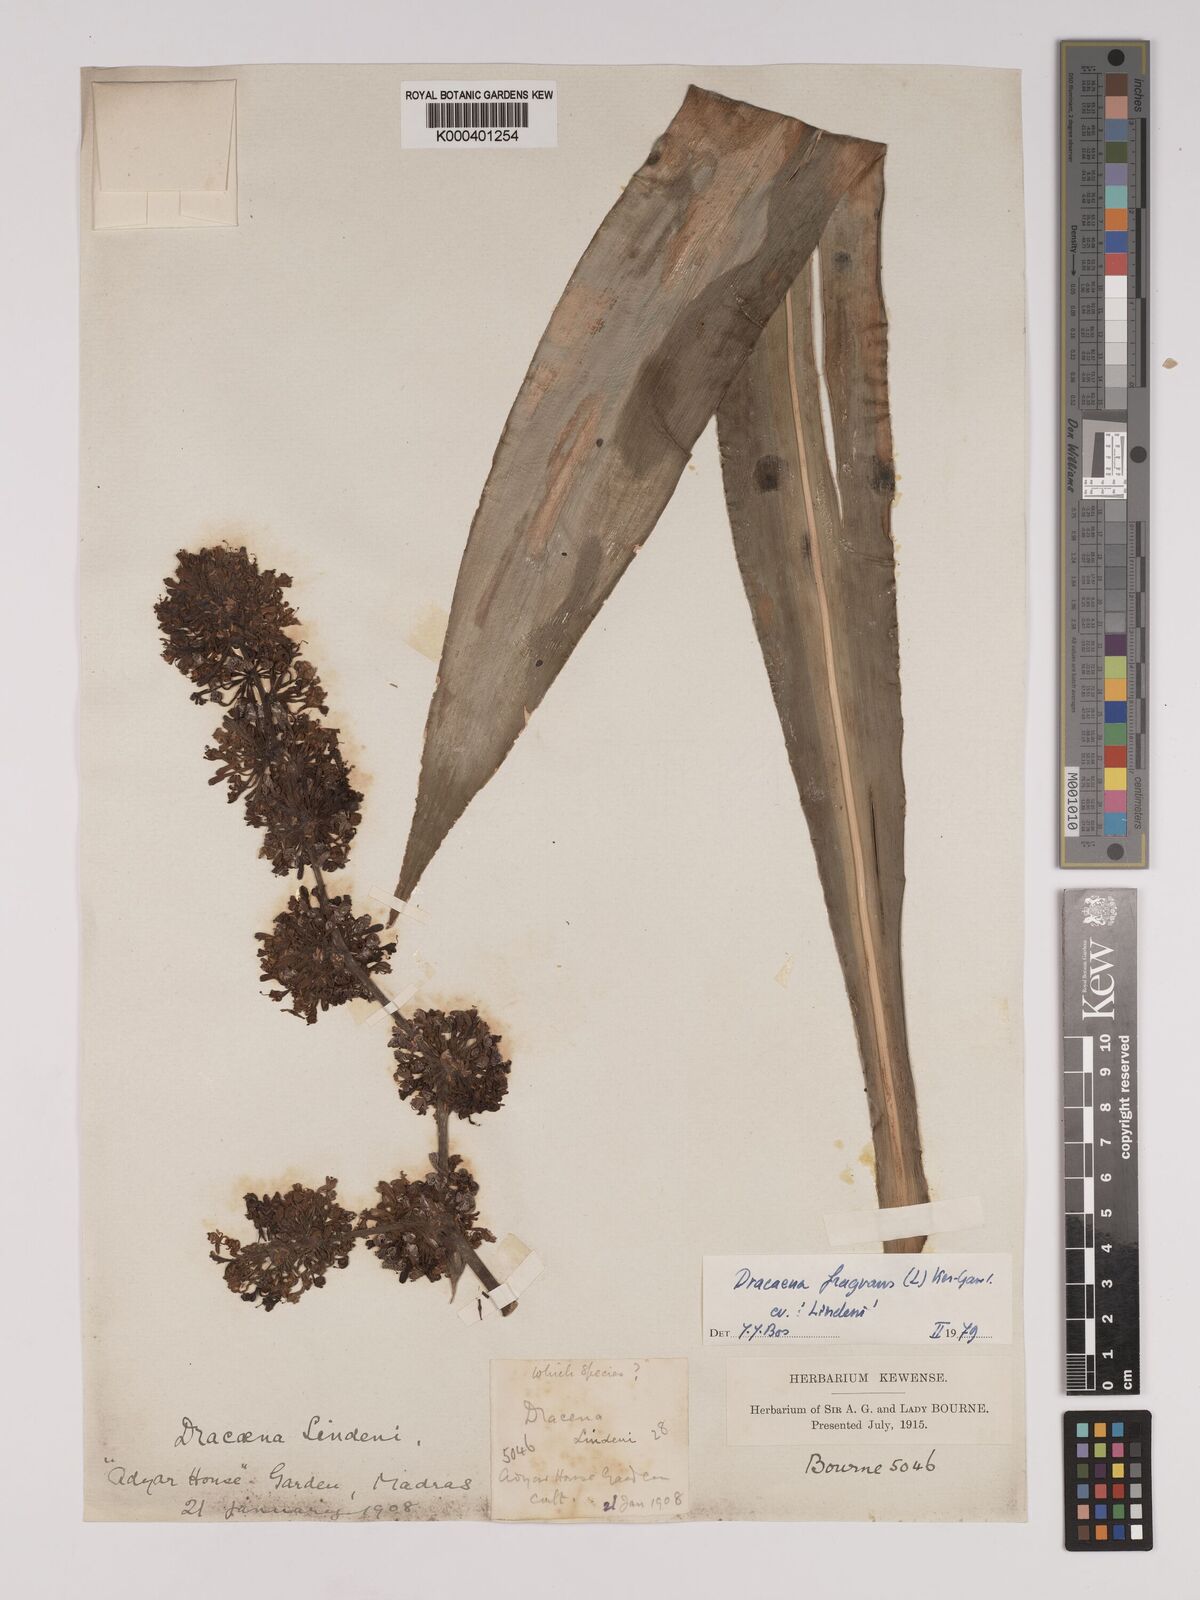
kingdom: Plantae
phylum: Tracheophyta
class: Liliopsida
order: Asparagales
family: Asparagaceae
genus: Dracaena
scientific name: Dracaena fragrans
